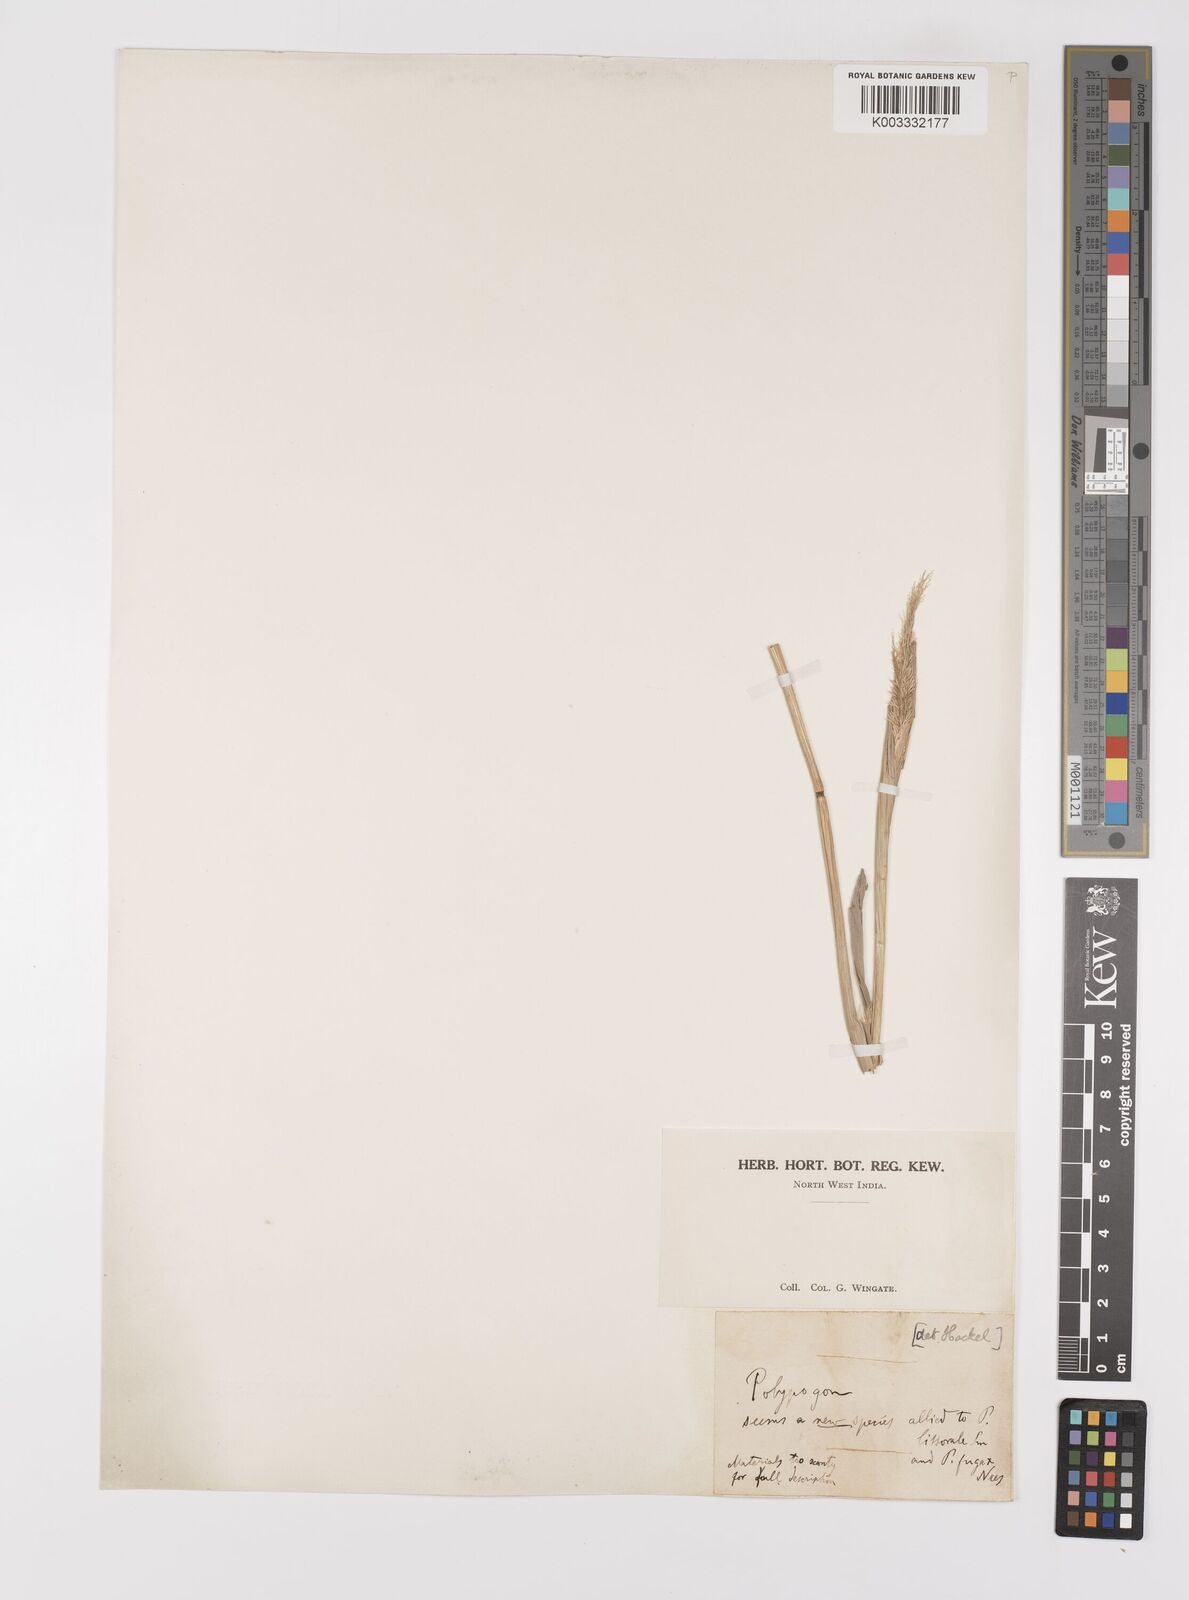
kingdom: Plantae
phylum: Tracheophyta
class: Liliopsida
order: Poales
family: Poaceae
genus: Polypogon
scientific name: Polypogon fugax
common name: Asia minor bluegrass
